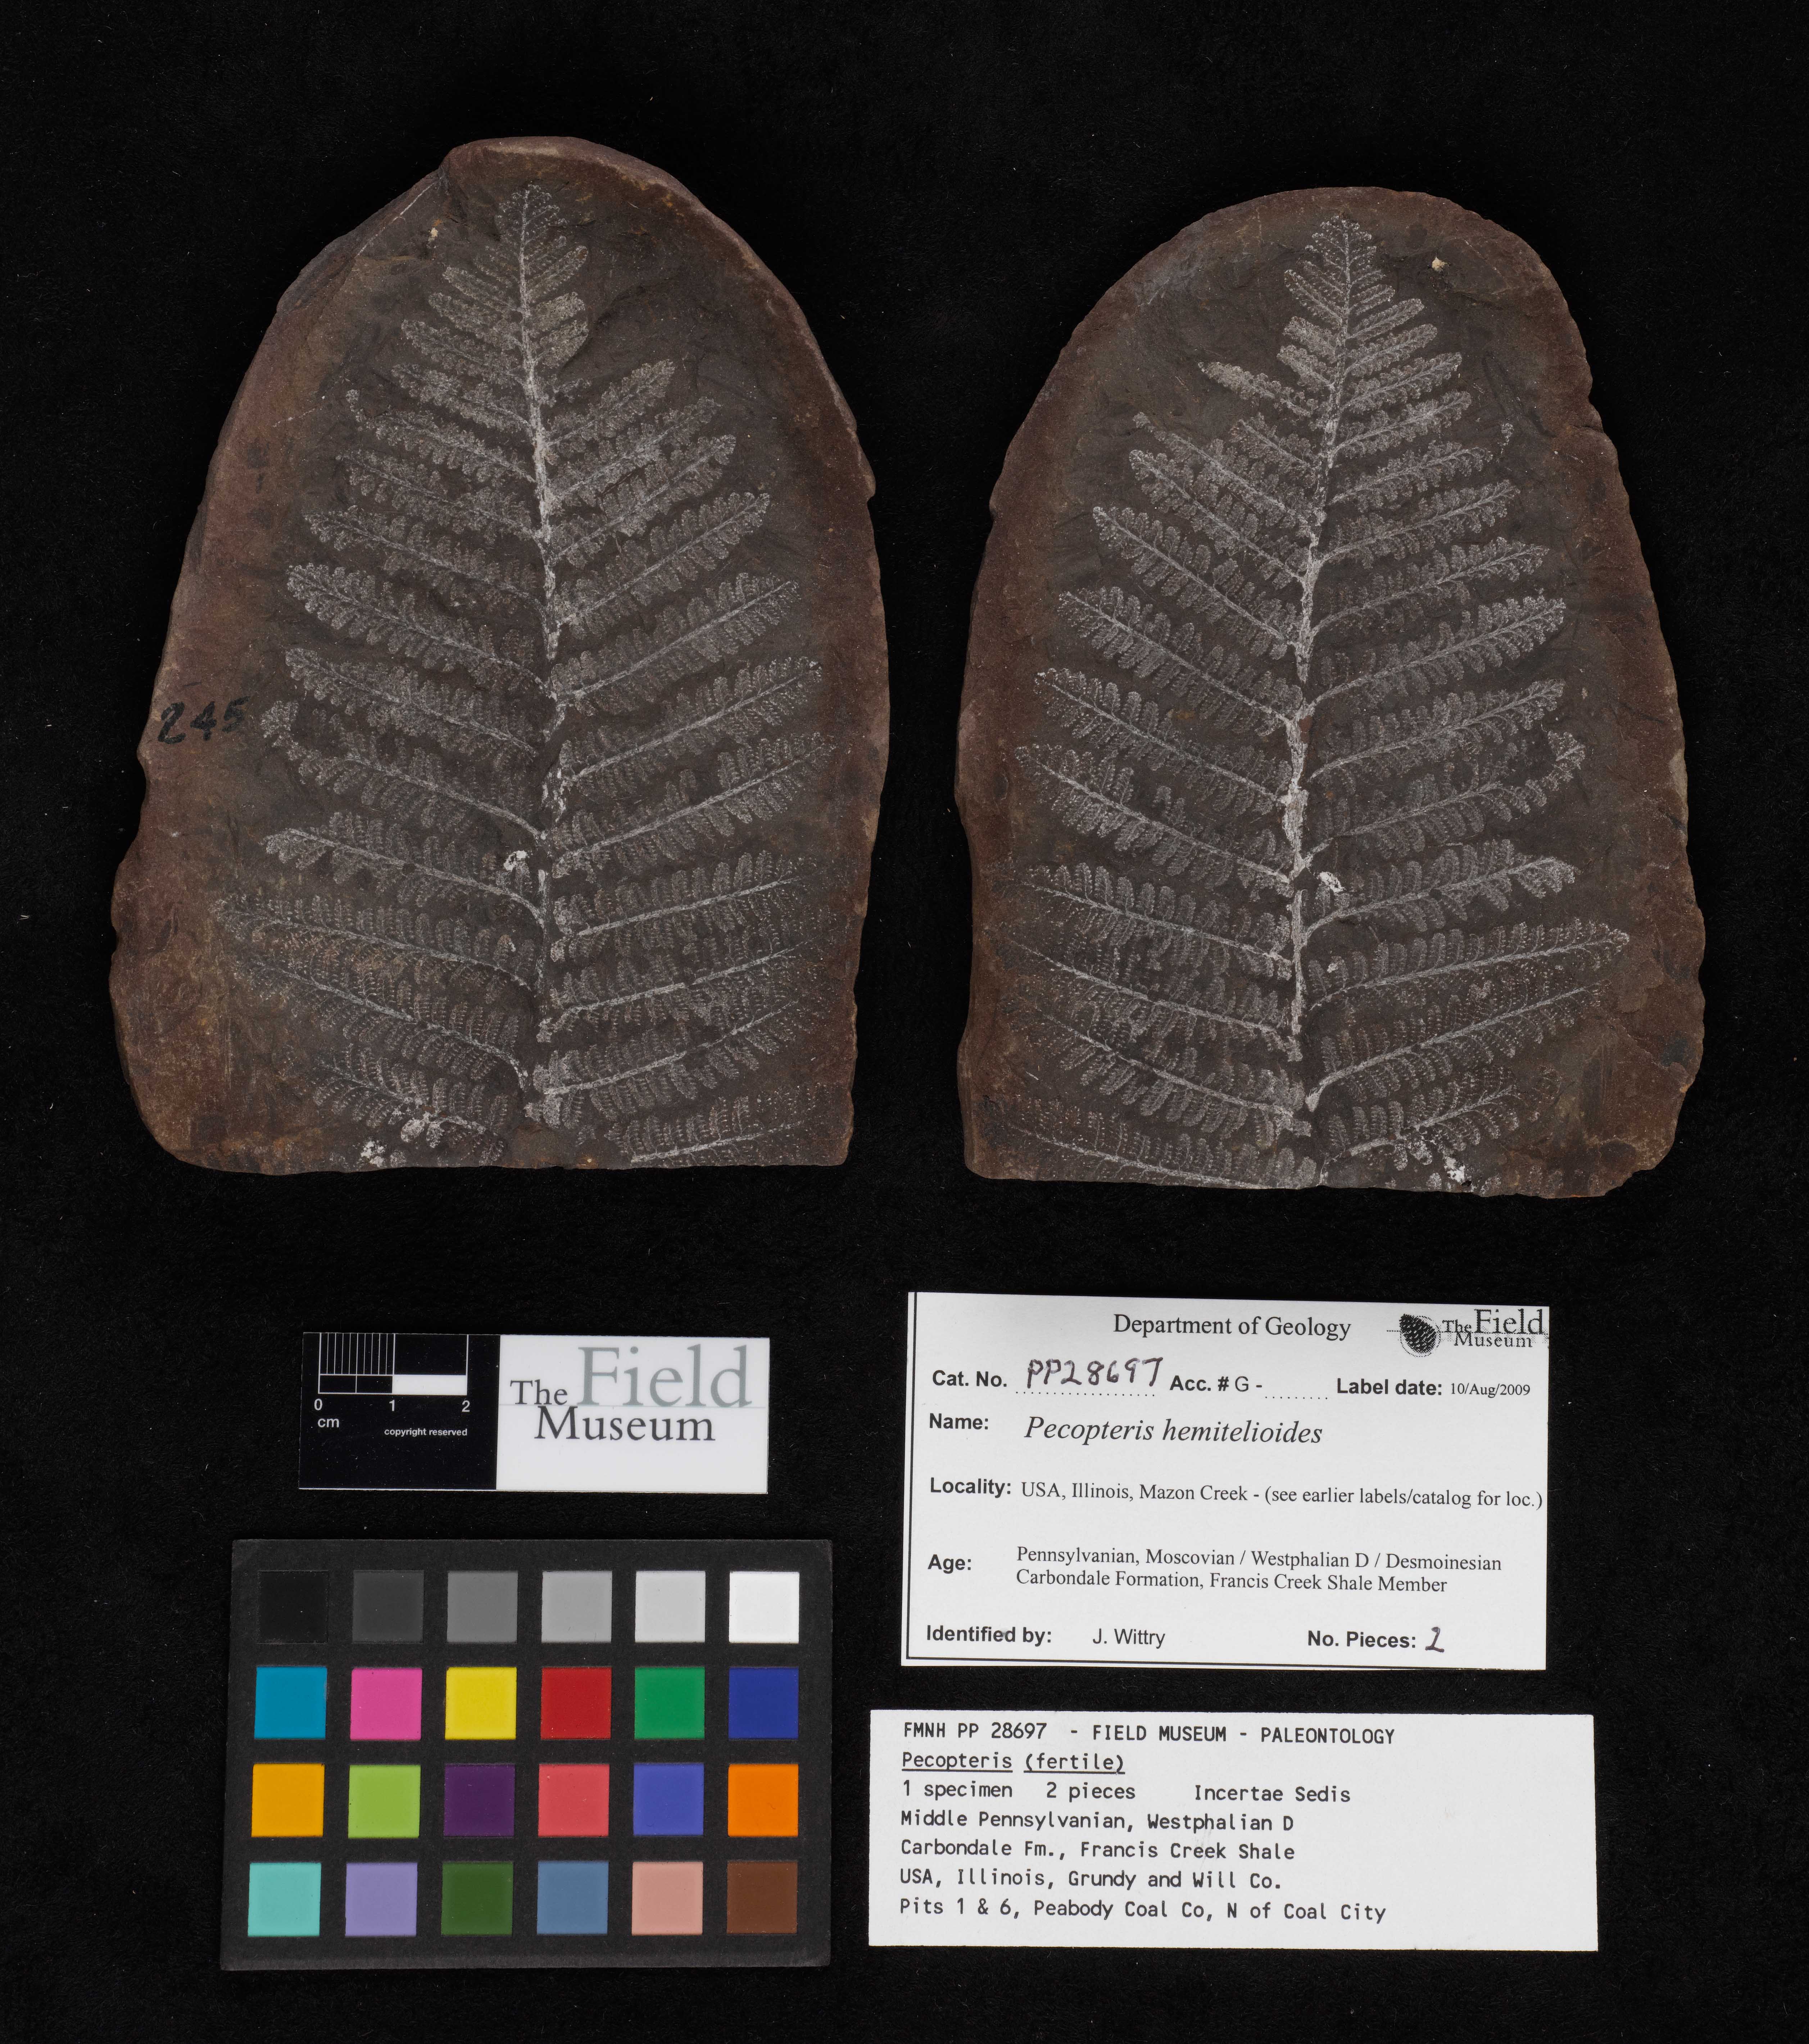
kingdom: Plantae
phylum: Tracheophyta
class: Polypodiopsida
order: Marattiales
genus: Cyathocarpus
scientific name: Cyathocarpus
